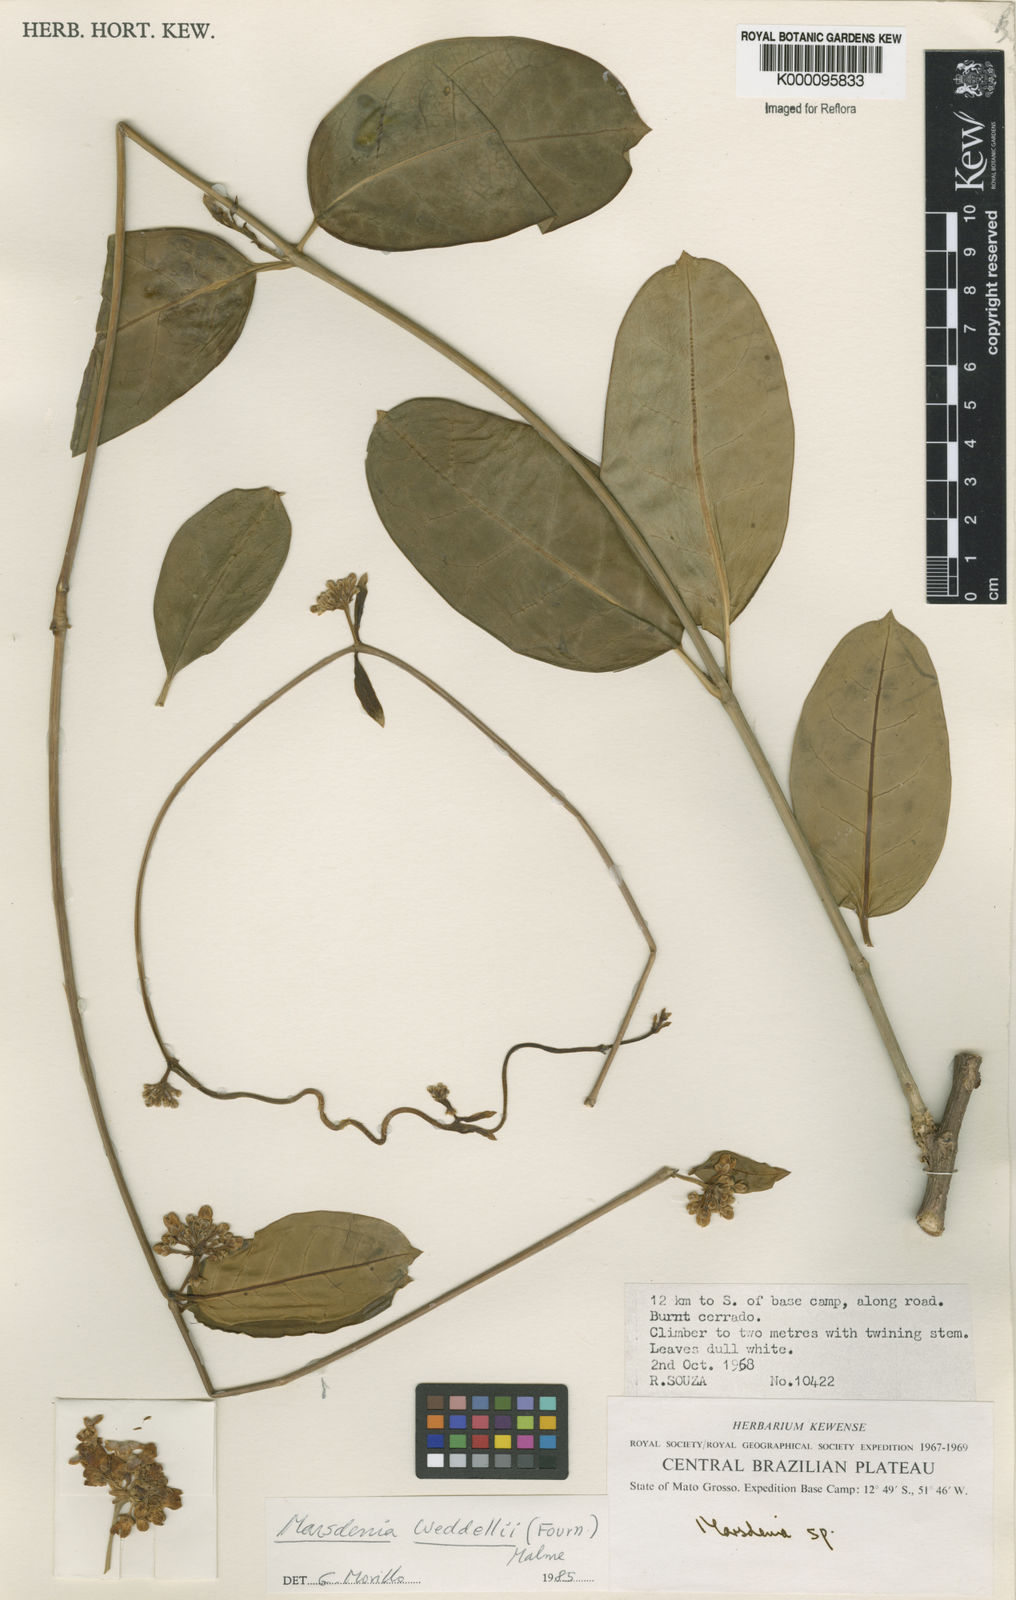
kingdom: Plantae
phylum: Tracheophyta
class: Magnoliopsida
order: Gentianales
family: Apocynaceae
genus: Ruehssia
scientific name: Ruehssia weddellii
